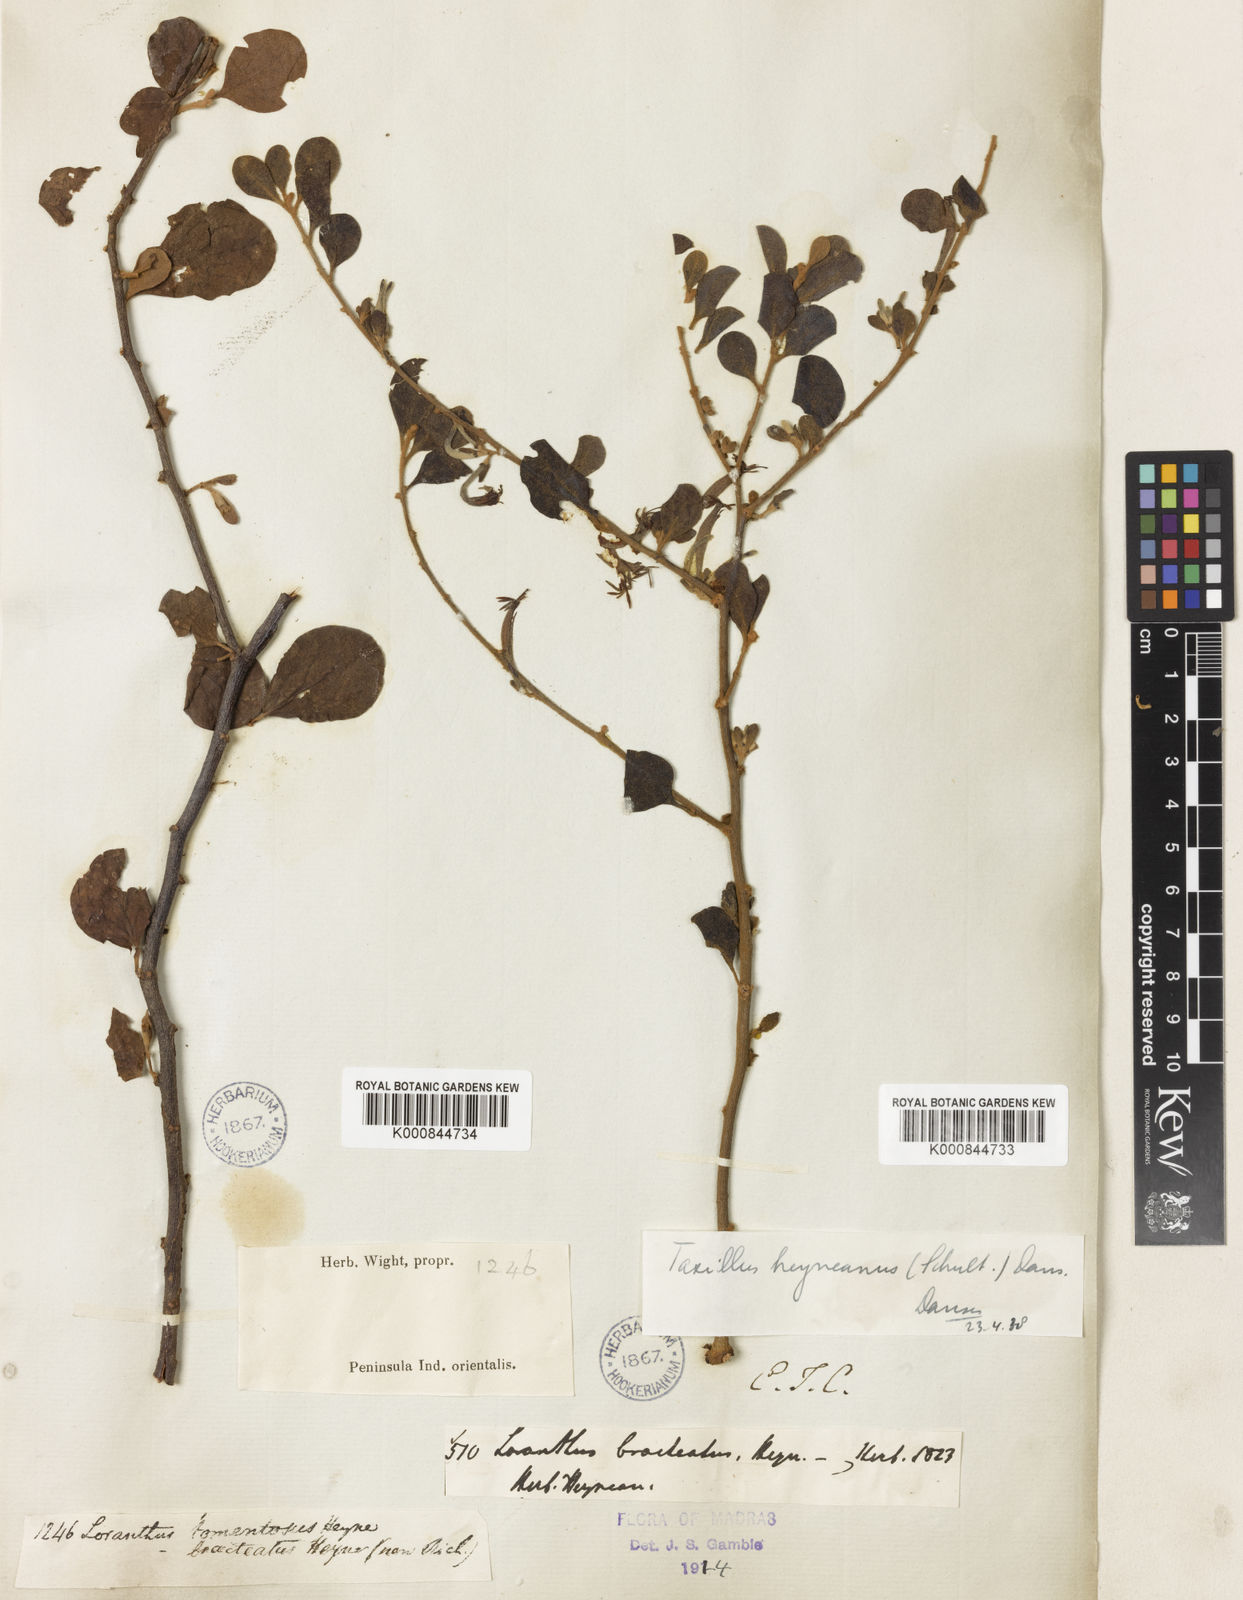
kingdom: Plantae
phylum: Tracheophyta
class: Magnoliopsida
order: Santalales
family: Loranthaceae
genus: Taxillus
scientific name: Taxillus heyneanus
